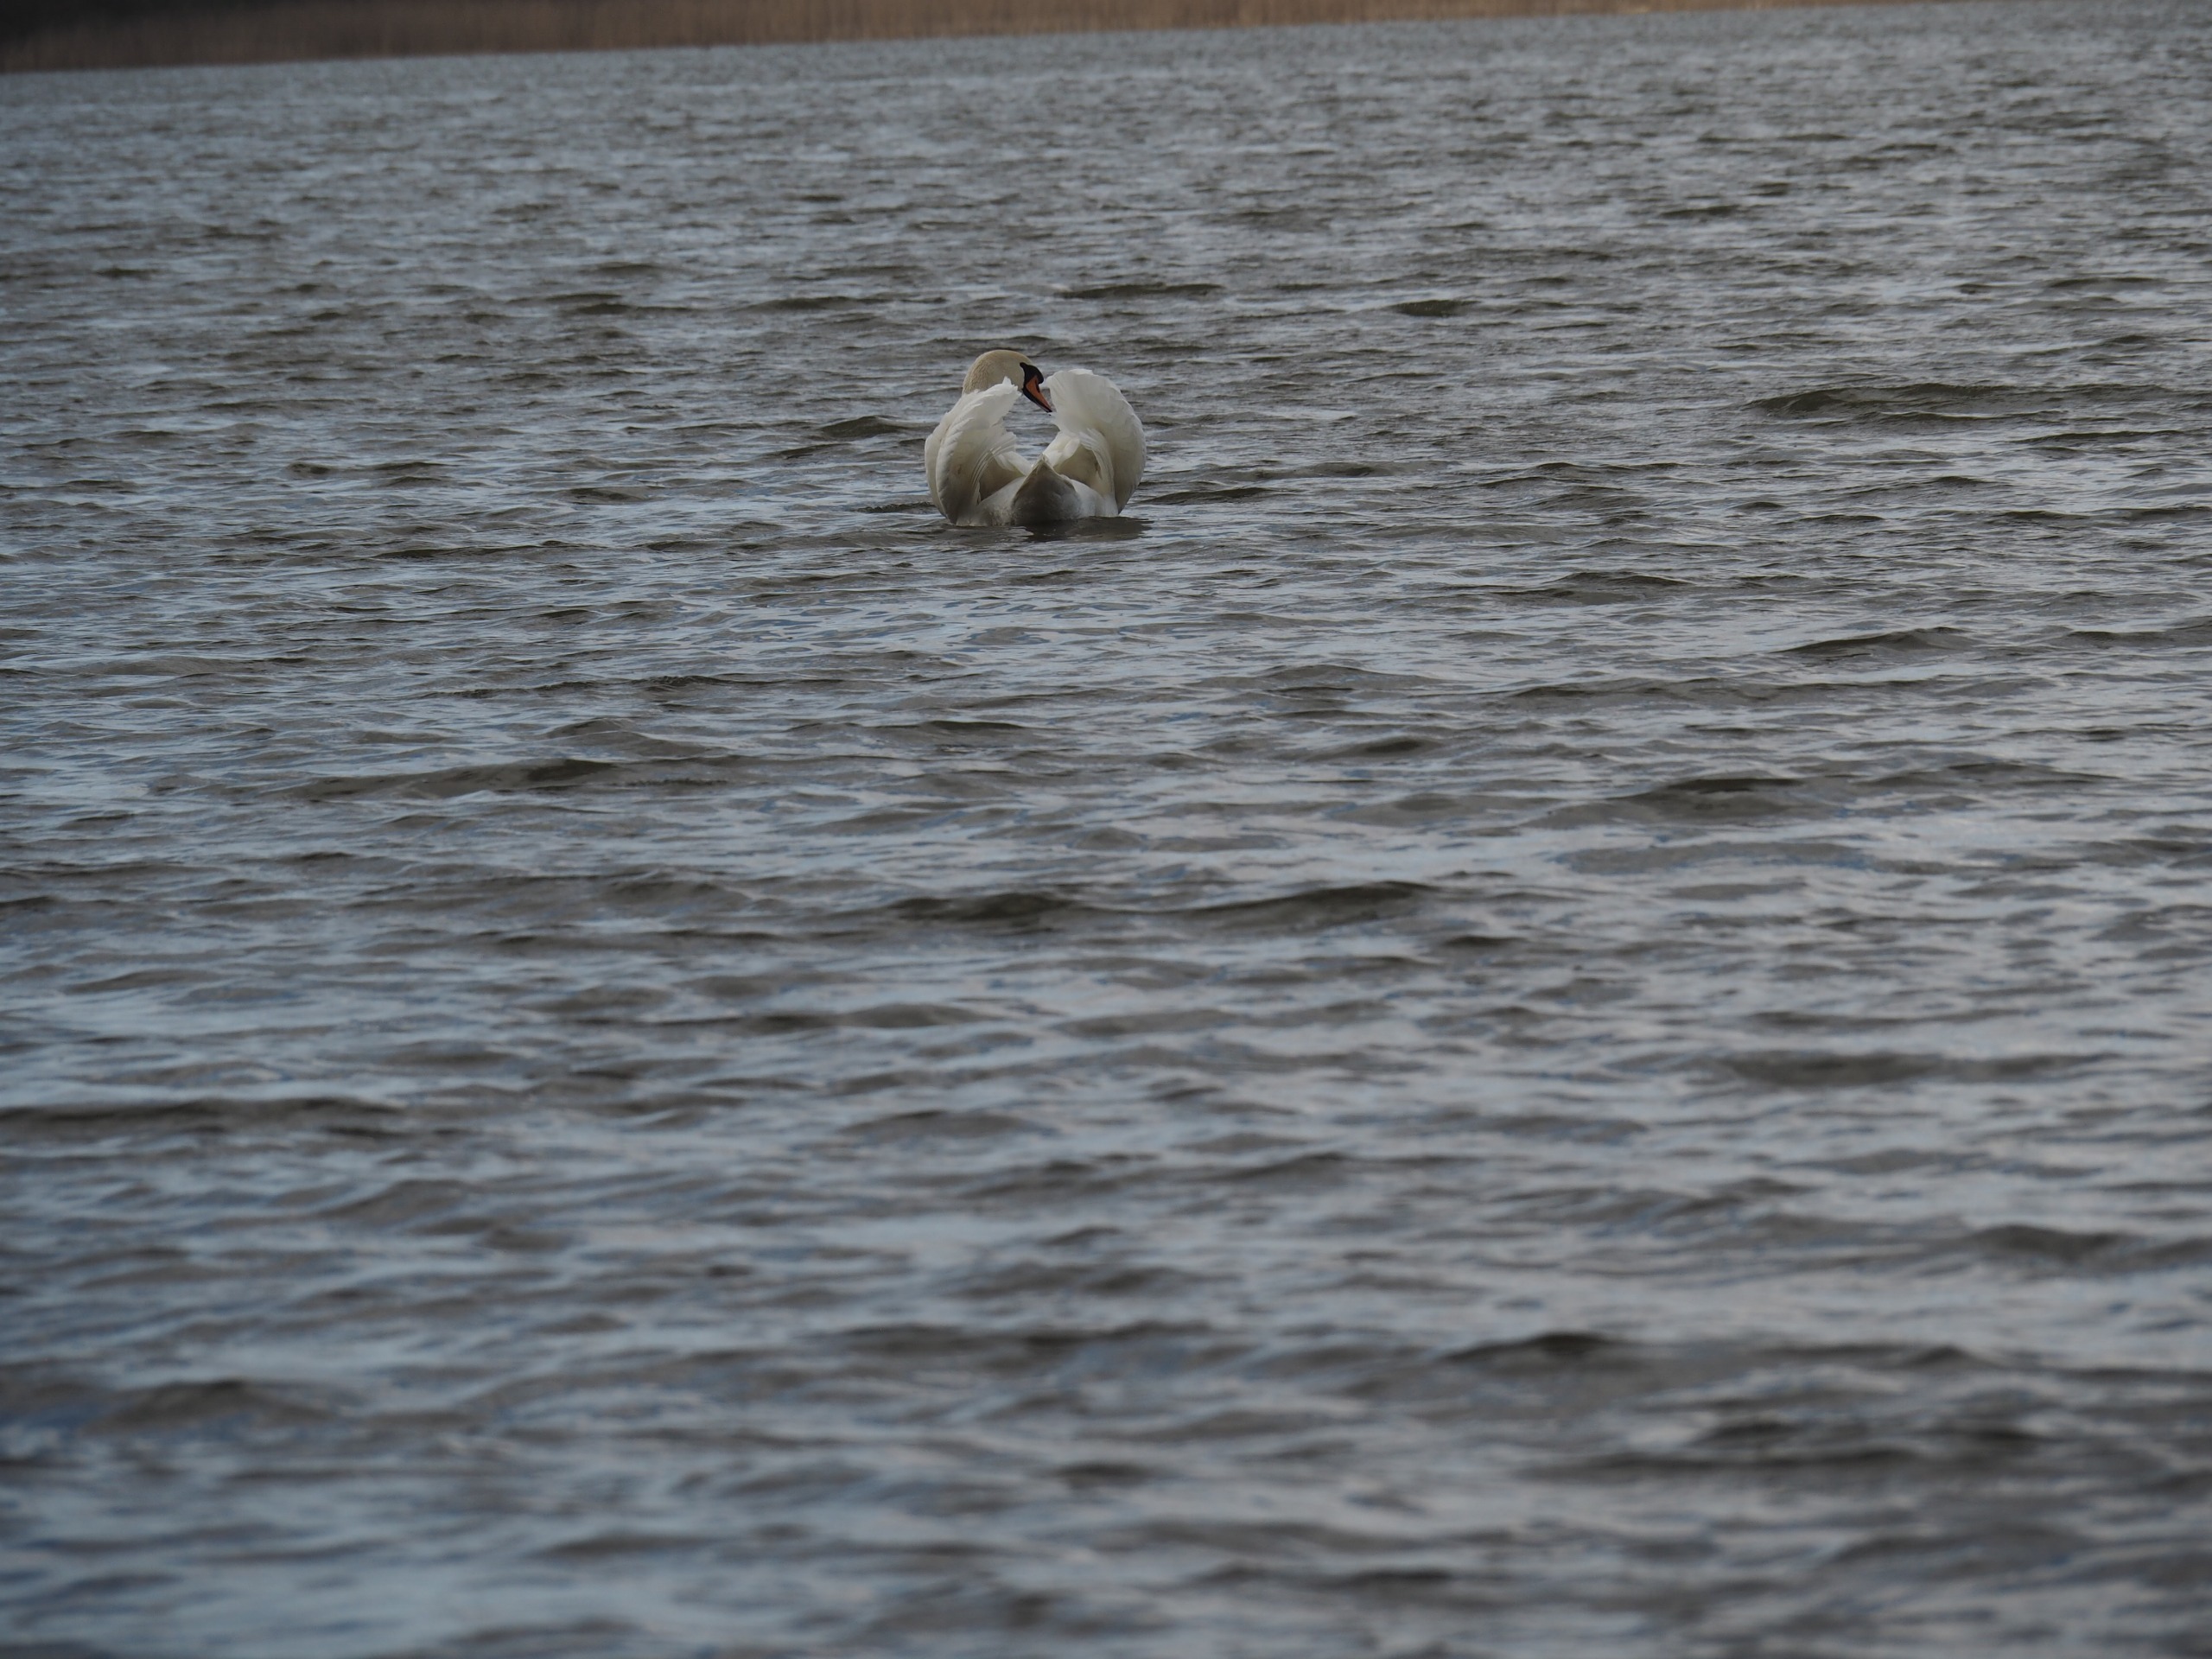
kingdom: Animalia
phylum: Chordata
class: Aves
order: Anseriformes
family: Anatidae
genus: Cygnus
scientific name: Cygnus olor
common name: Knopsvane
